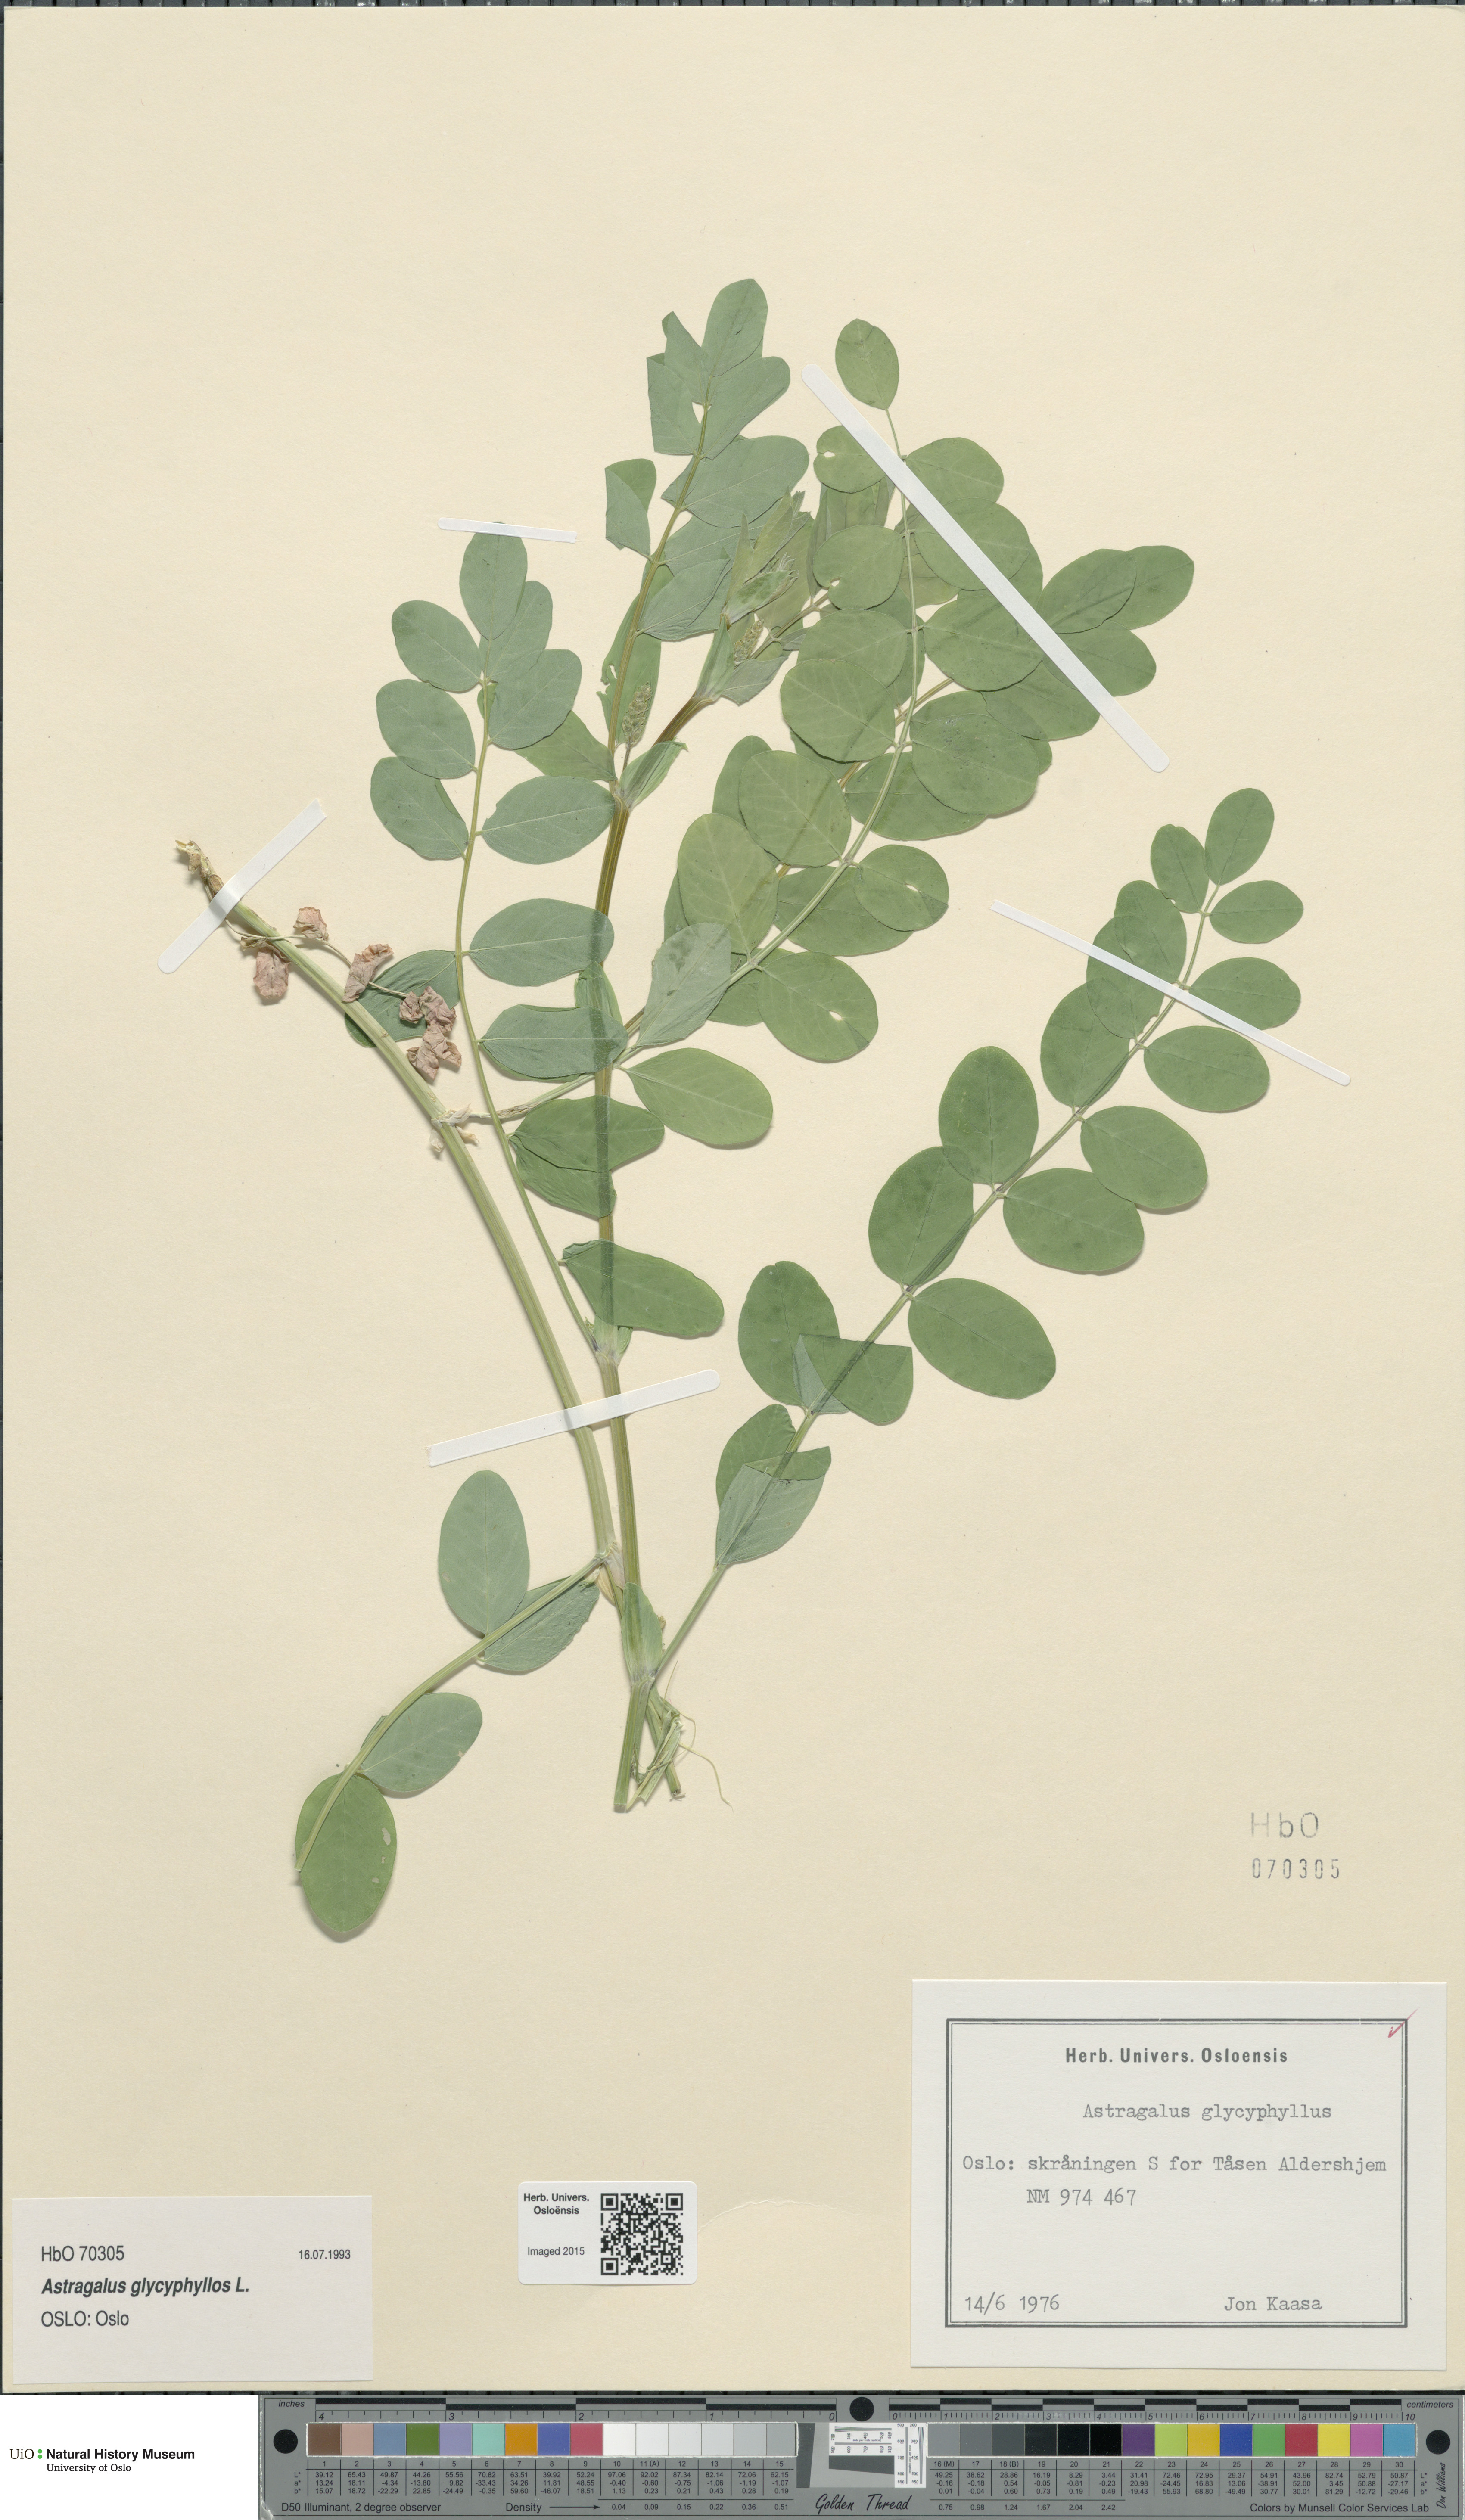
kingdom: Plantae
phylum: Tracheophyta
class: Magnoliopsida
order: Fabales
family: Fabaceae
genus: Astragalus
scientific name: Astragalus glycyphyllos
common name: Wild liquorice
